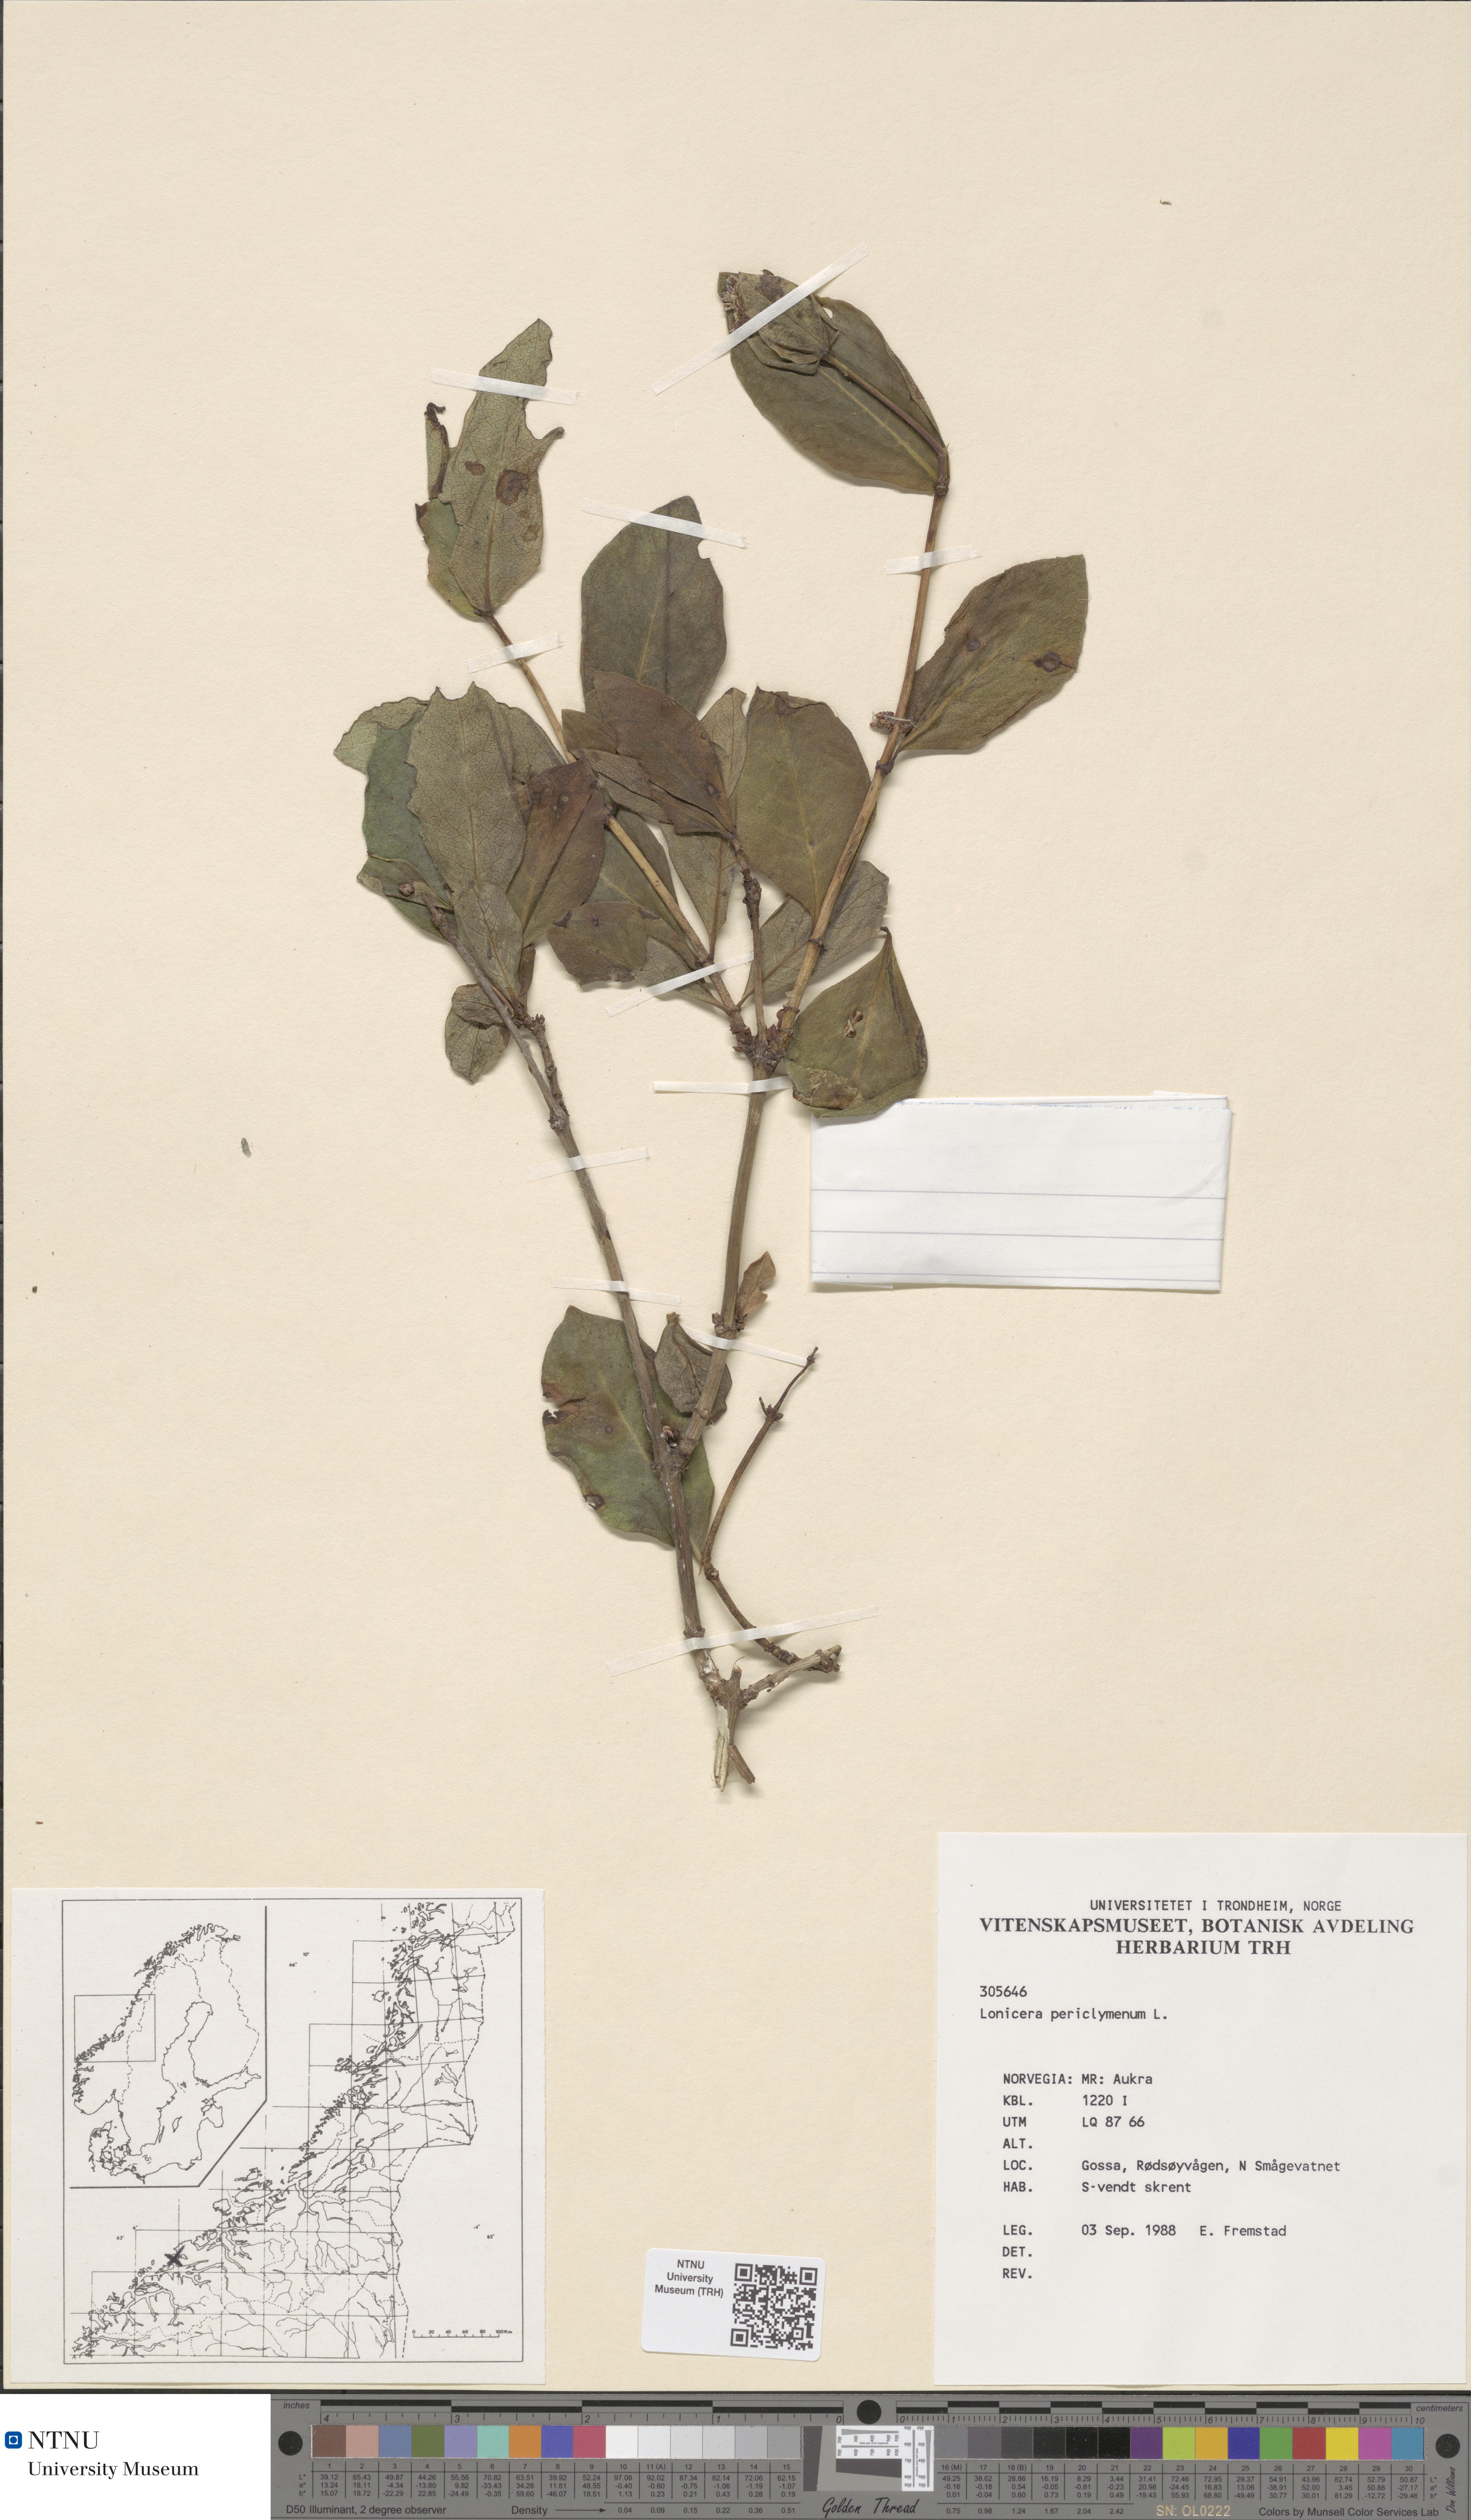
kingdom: Plantae
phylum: Tracheophyta
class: Magnoliopsida
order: Dipsacales
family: Caprifoliaceae
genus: Lonicera
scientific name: Lonicera periclymenum
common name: European honeysuckle
